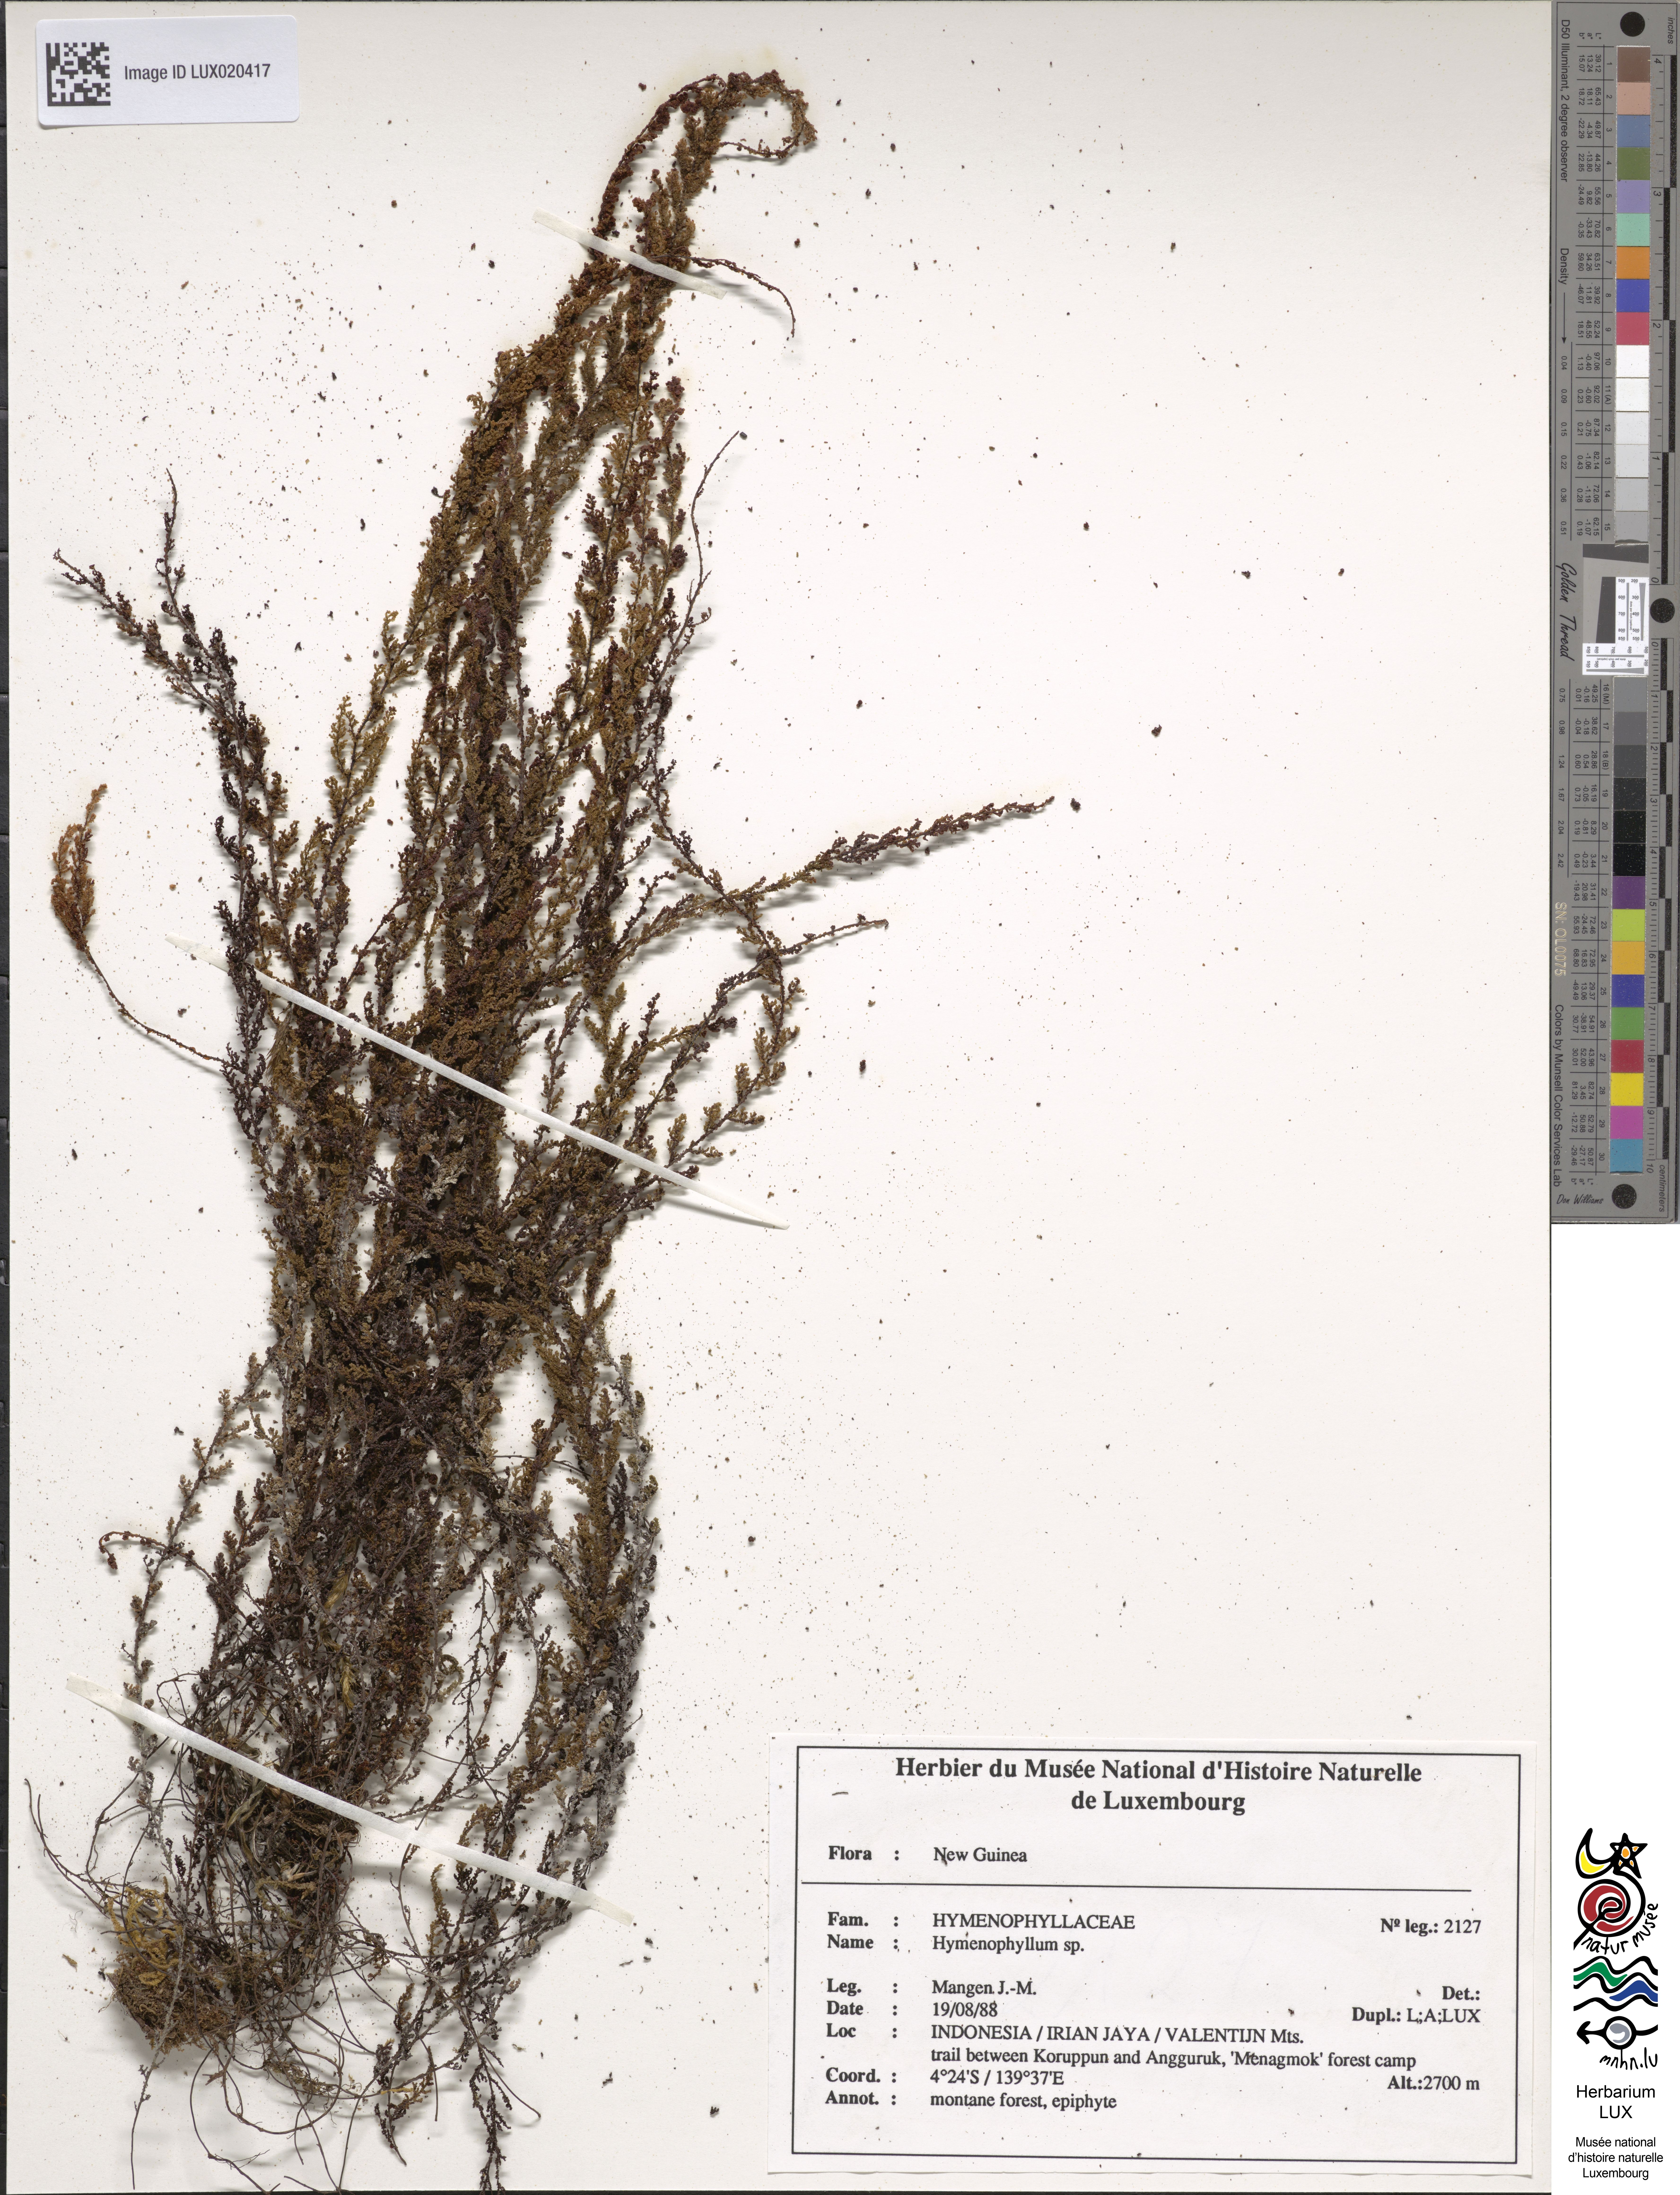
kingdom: Plantae
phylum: Tracheophyta
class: Polypodiopsida
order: Hymenophyllales
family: Hymenophyllaceae
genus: Hymenophyllum
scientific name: Hymenophyllum
